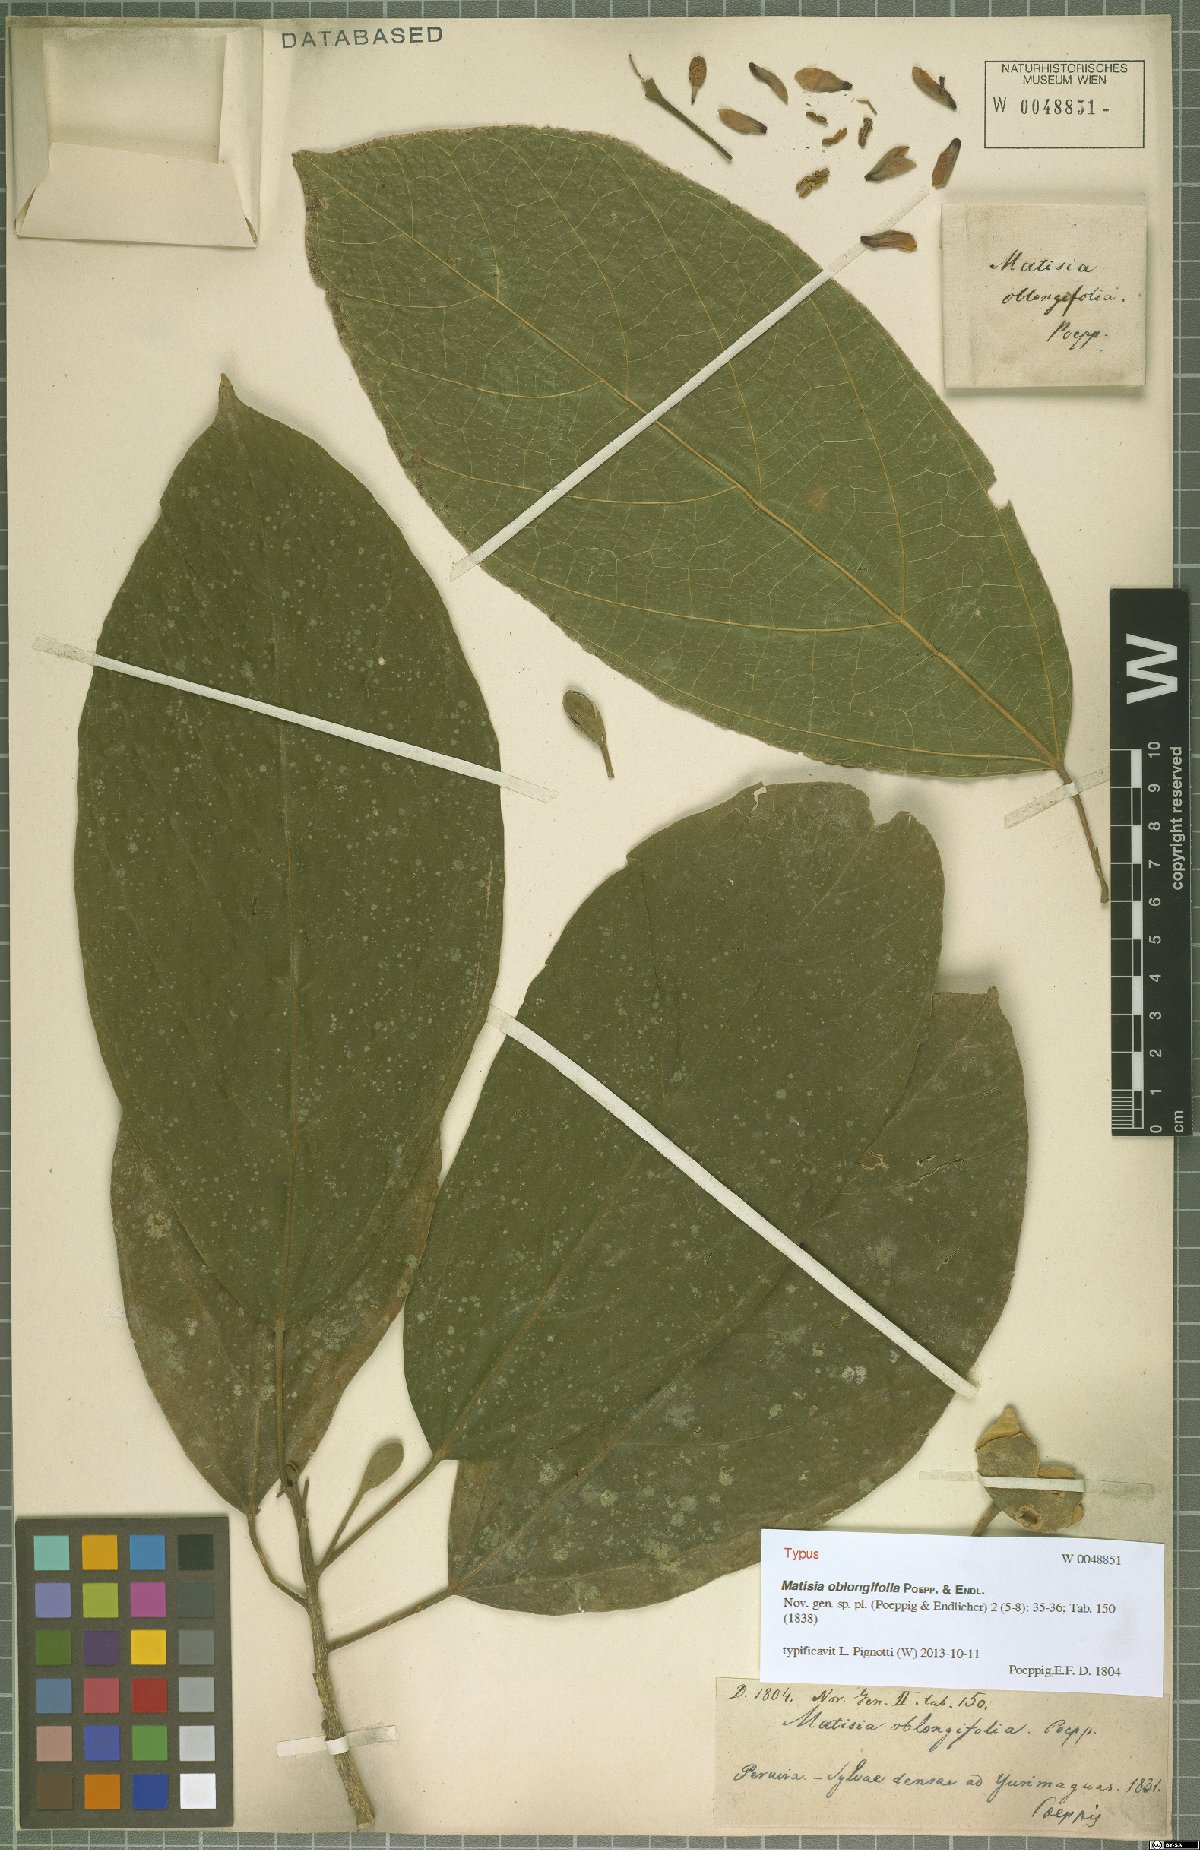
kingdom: Plantae
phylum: Tracheophyta
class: Magnoliopsida
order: Malvales
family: Malvaceae
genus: Matisia
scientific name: Matisia oblongifolia
